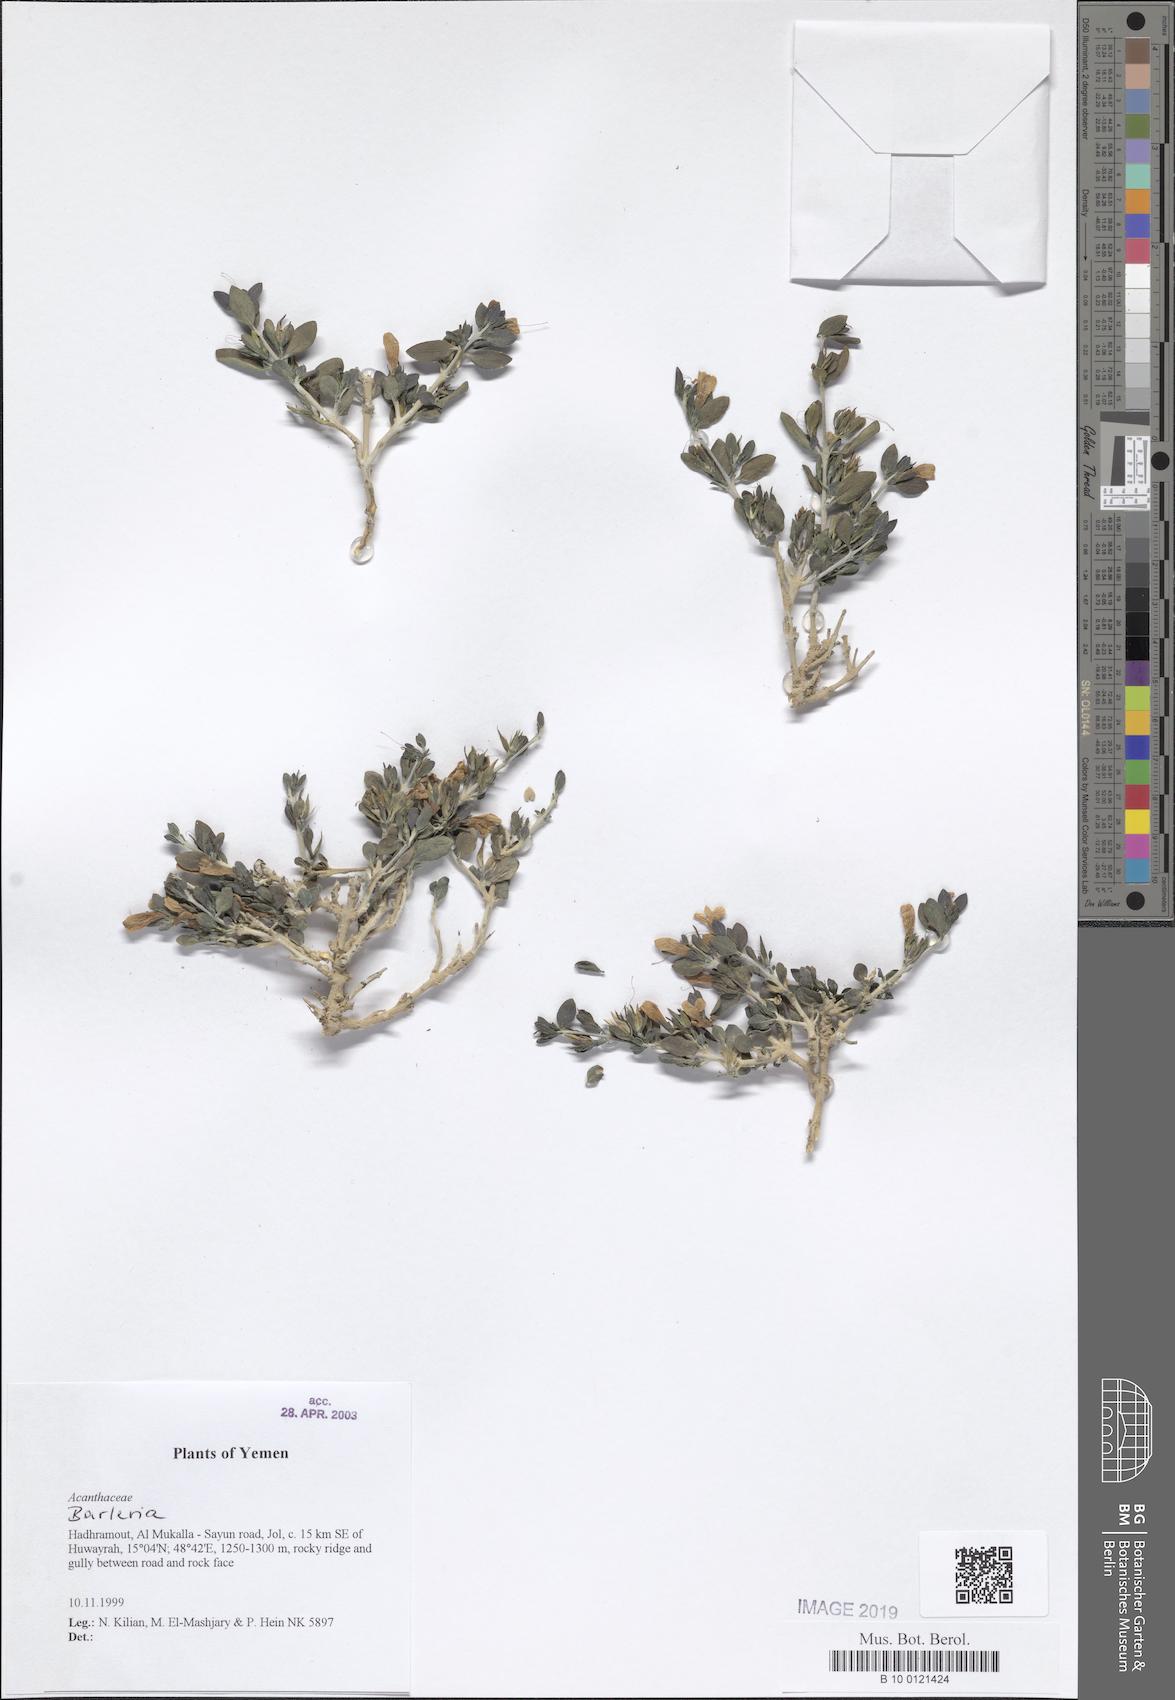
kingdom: Plantae
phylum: Tracheophyta
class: Magnoliopsida
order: Lamiales
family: Acanthaceae
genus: Barleria
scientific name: Barleria
